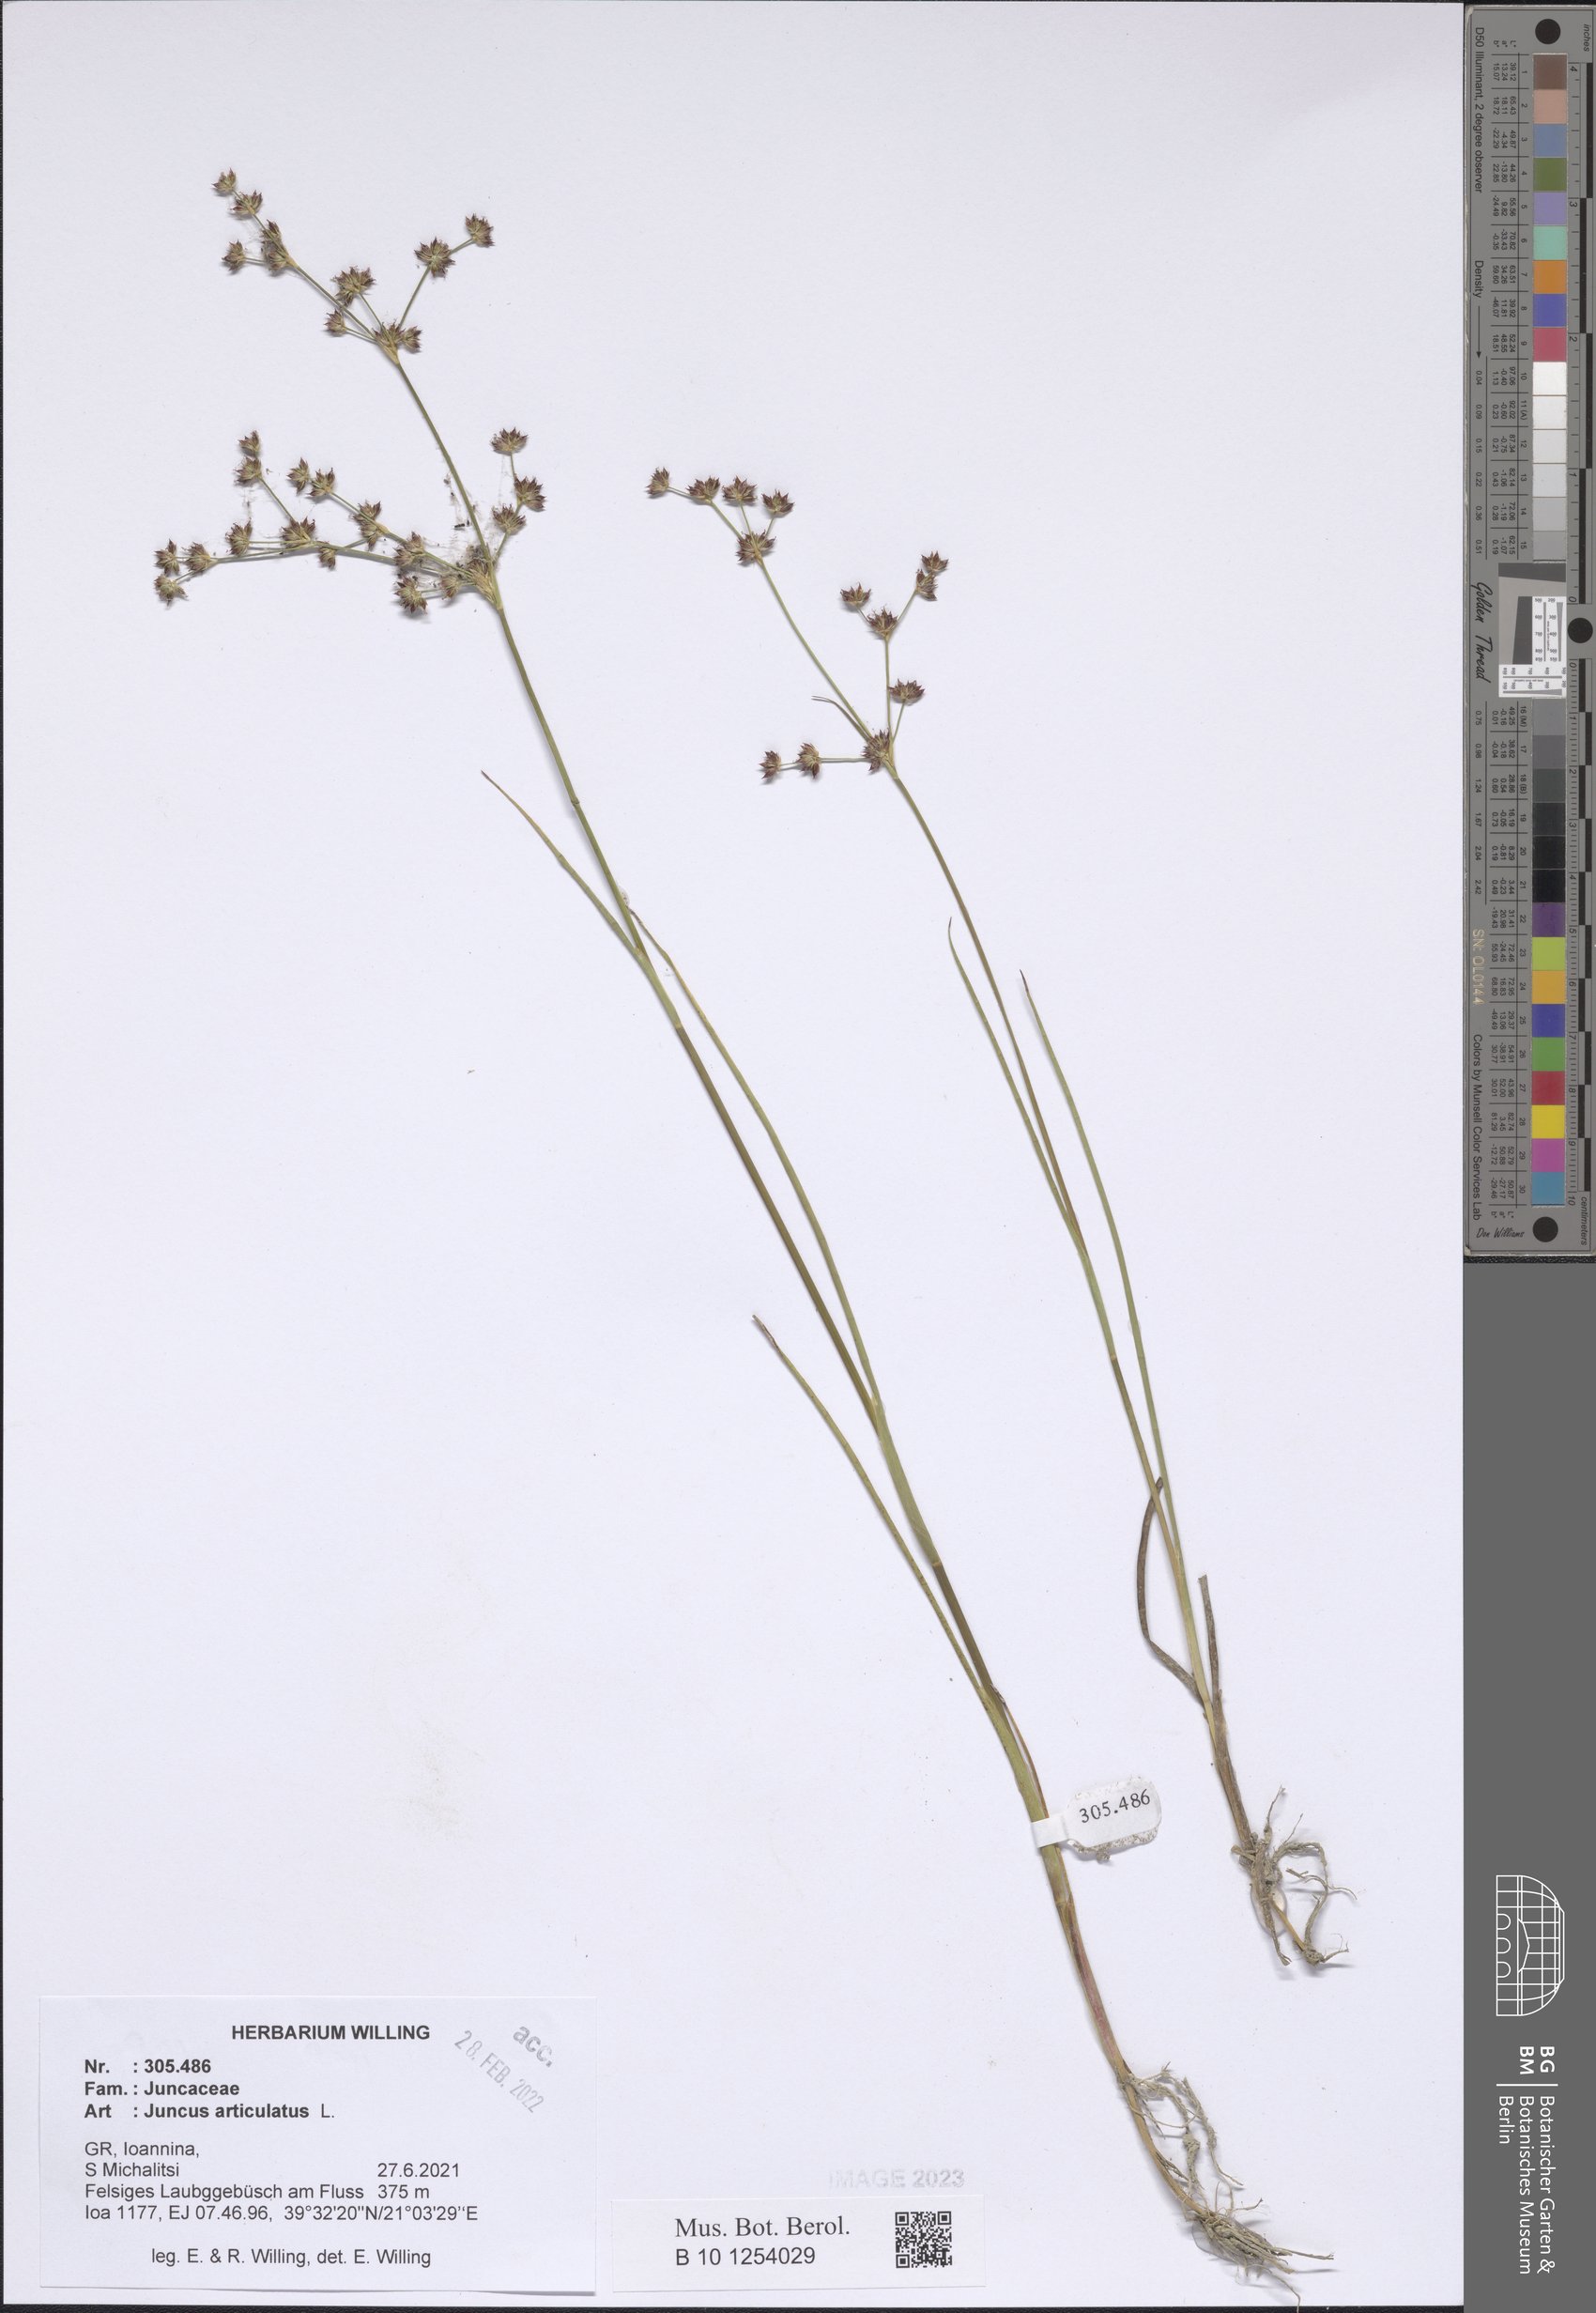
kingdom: Plantae
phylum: Tracheophyta
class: Liliopsida
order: Poales
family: Juncaceae
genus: Juncus
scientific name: Juncus articulatus
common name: Jointed rush
